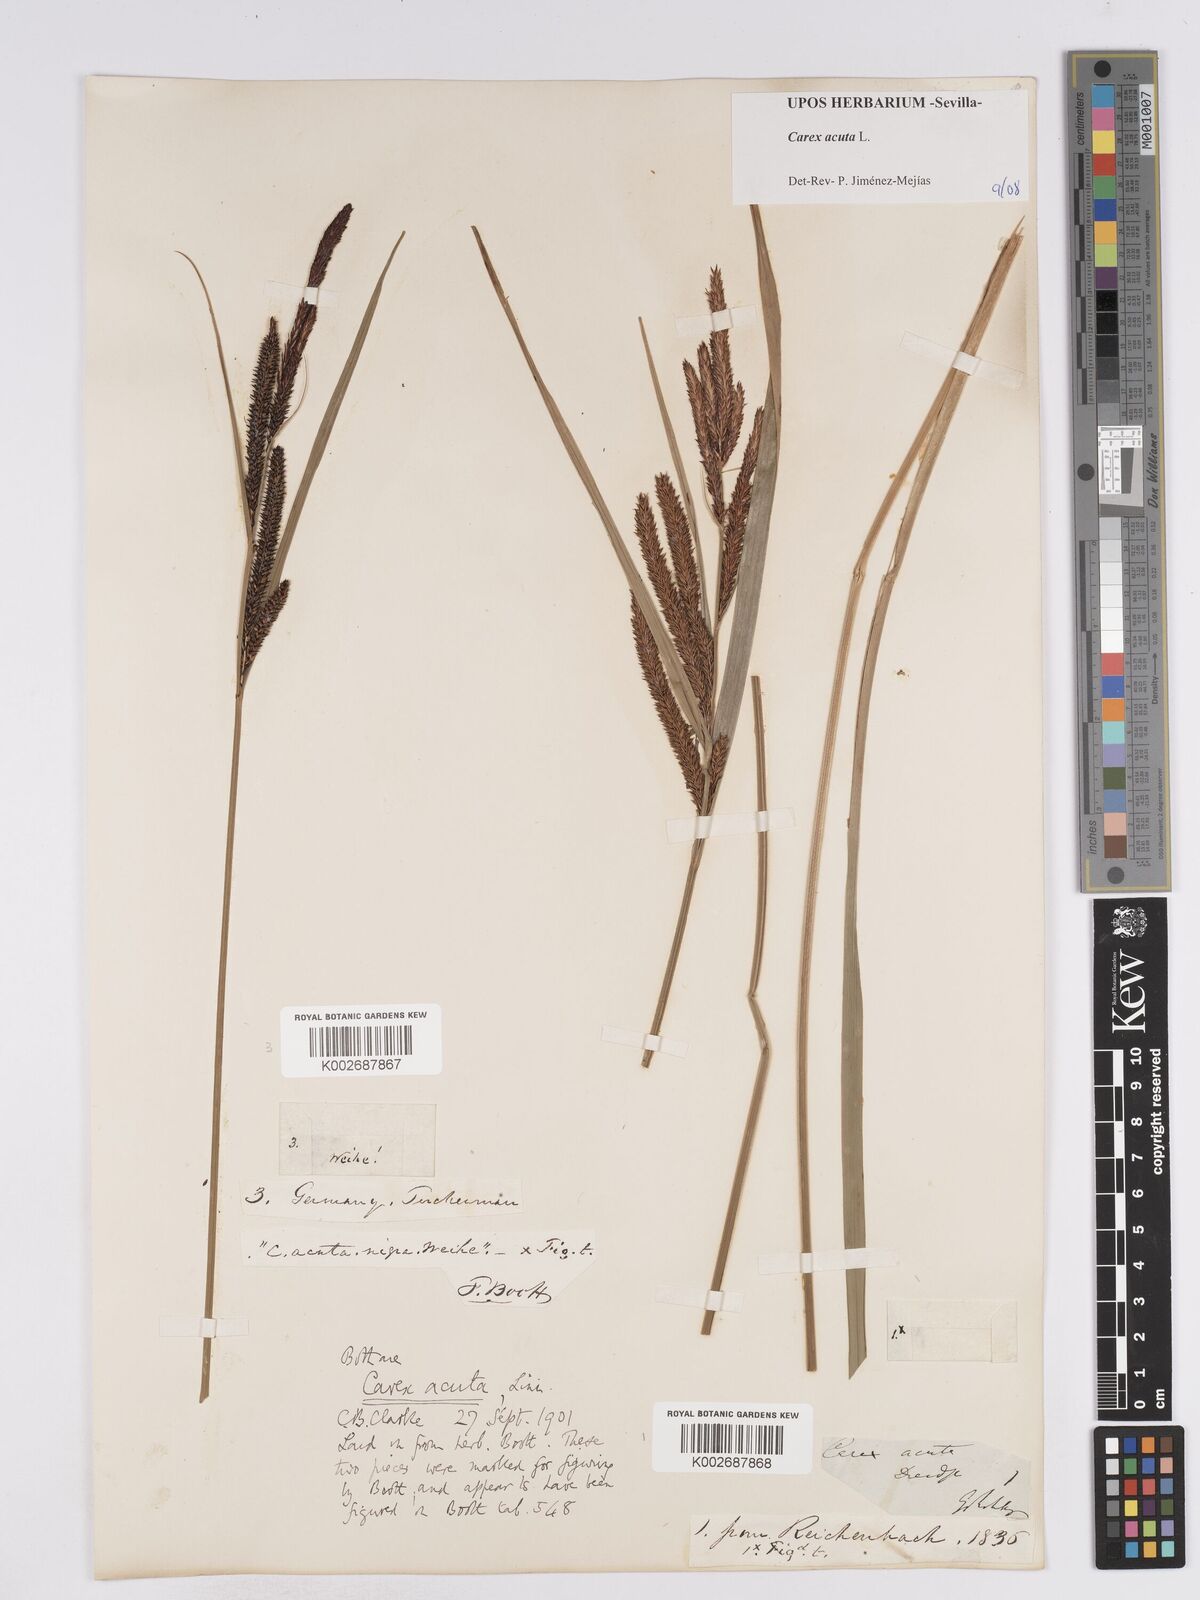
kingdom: Plantae
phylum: Tracheophyta
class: Liliopsida
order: Poales
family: Cyperaceae
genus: Carex
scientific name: Carex acuta
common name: Slender tufted-sedge
